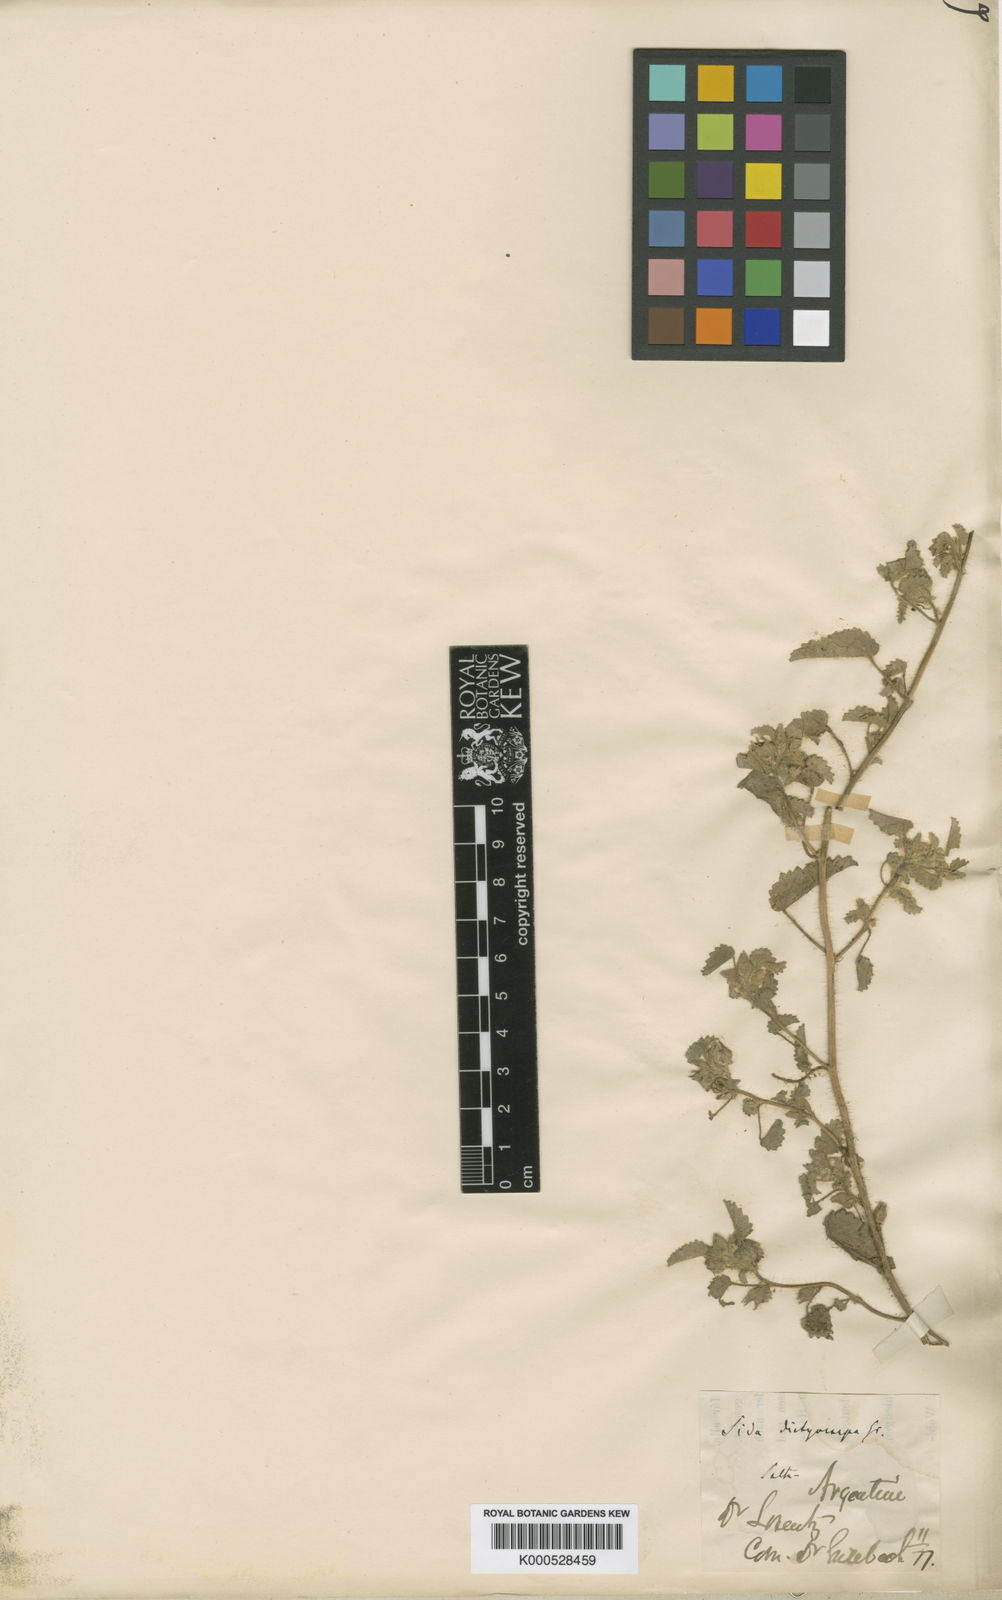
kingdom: Plantae
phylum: Tracheophyta
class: Magnoliopsida
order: Malvales
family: Malvaceae
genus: Sida
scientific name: Sida
